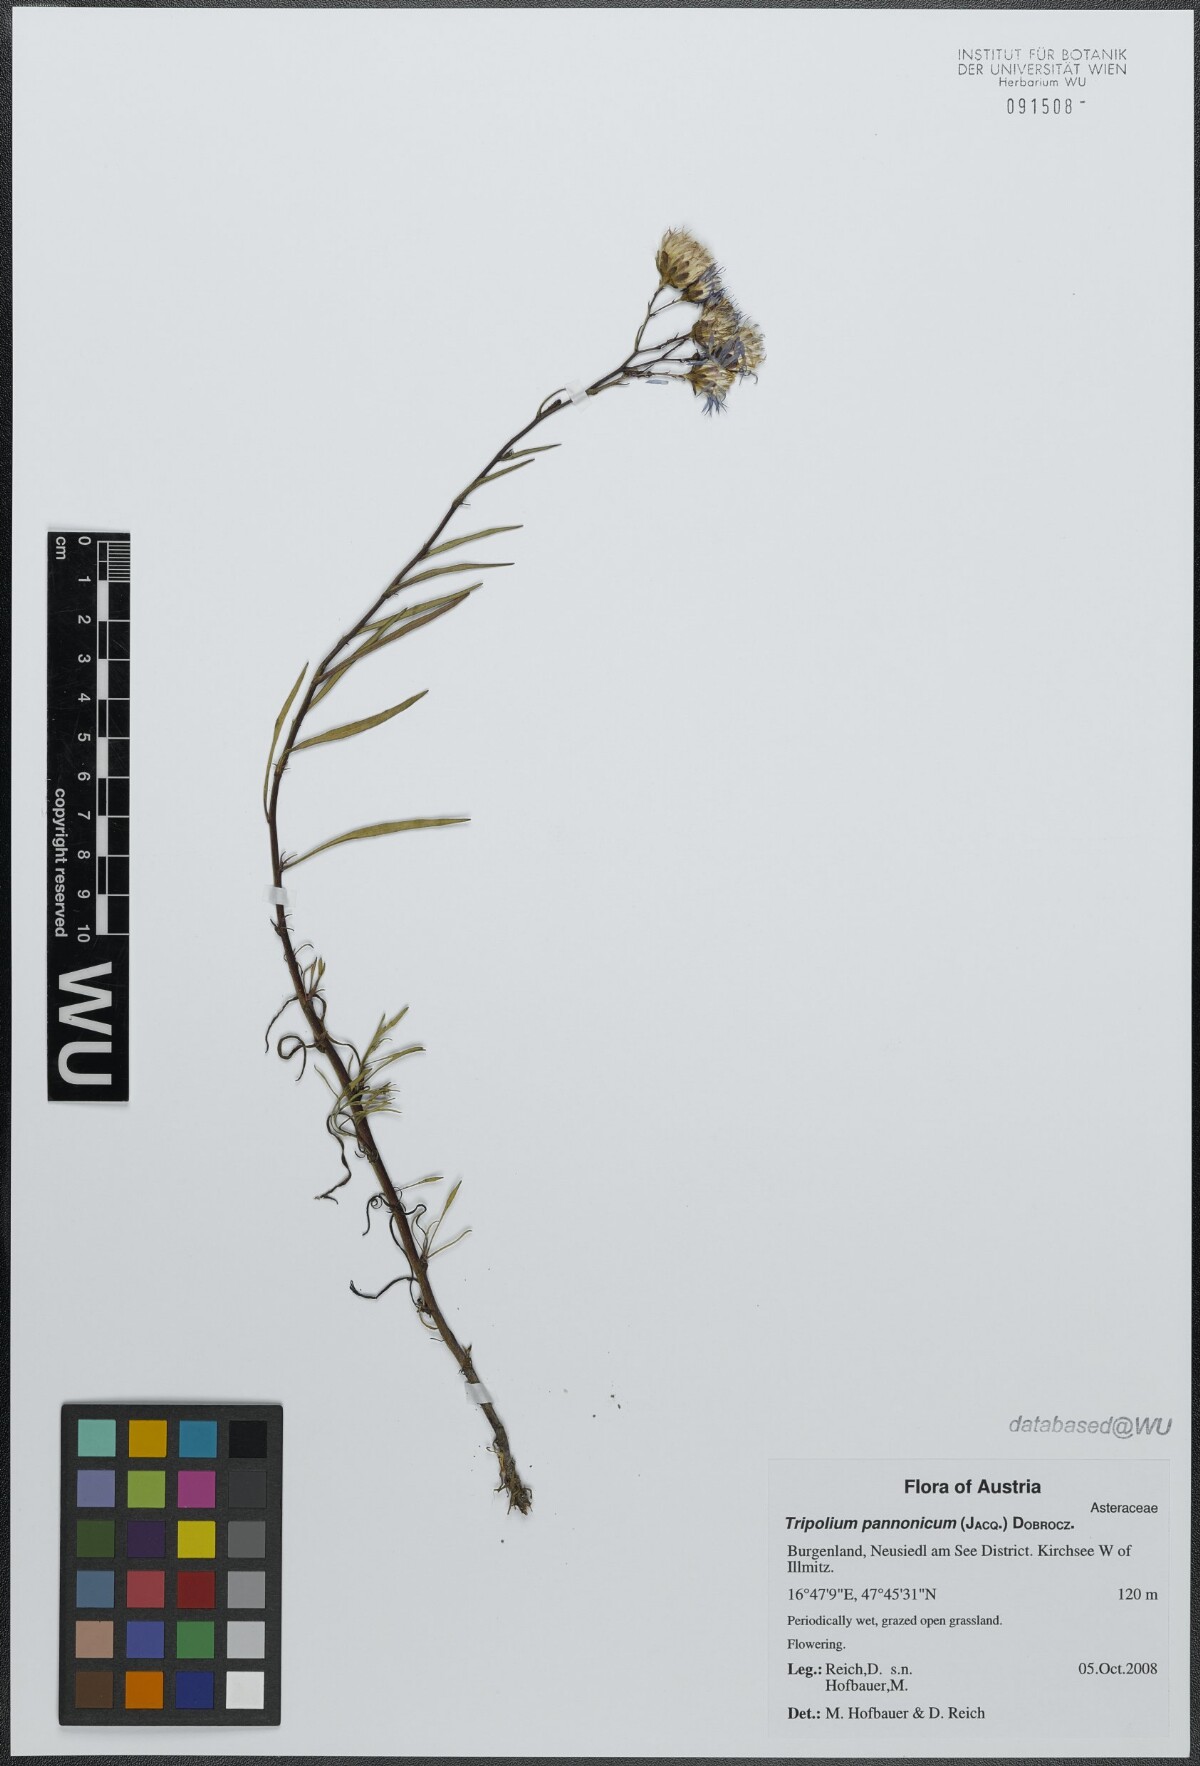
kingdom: Plantae
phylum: Tracheophyta
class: Magnoliopsida
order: Asterales
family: Asteraceae
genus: Tripolium
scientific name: Tripolium pannonicum
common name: Sea aster
